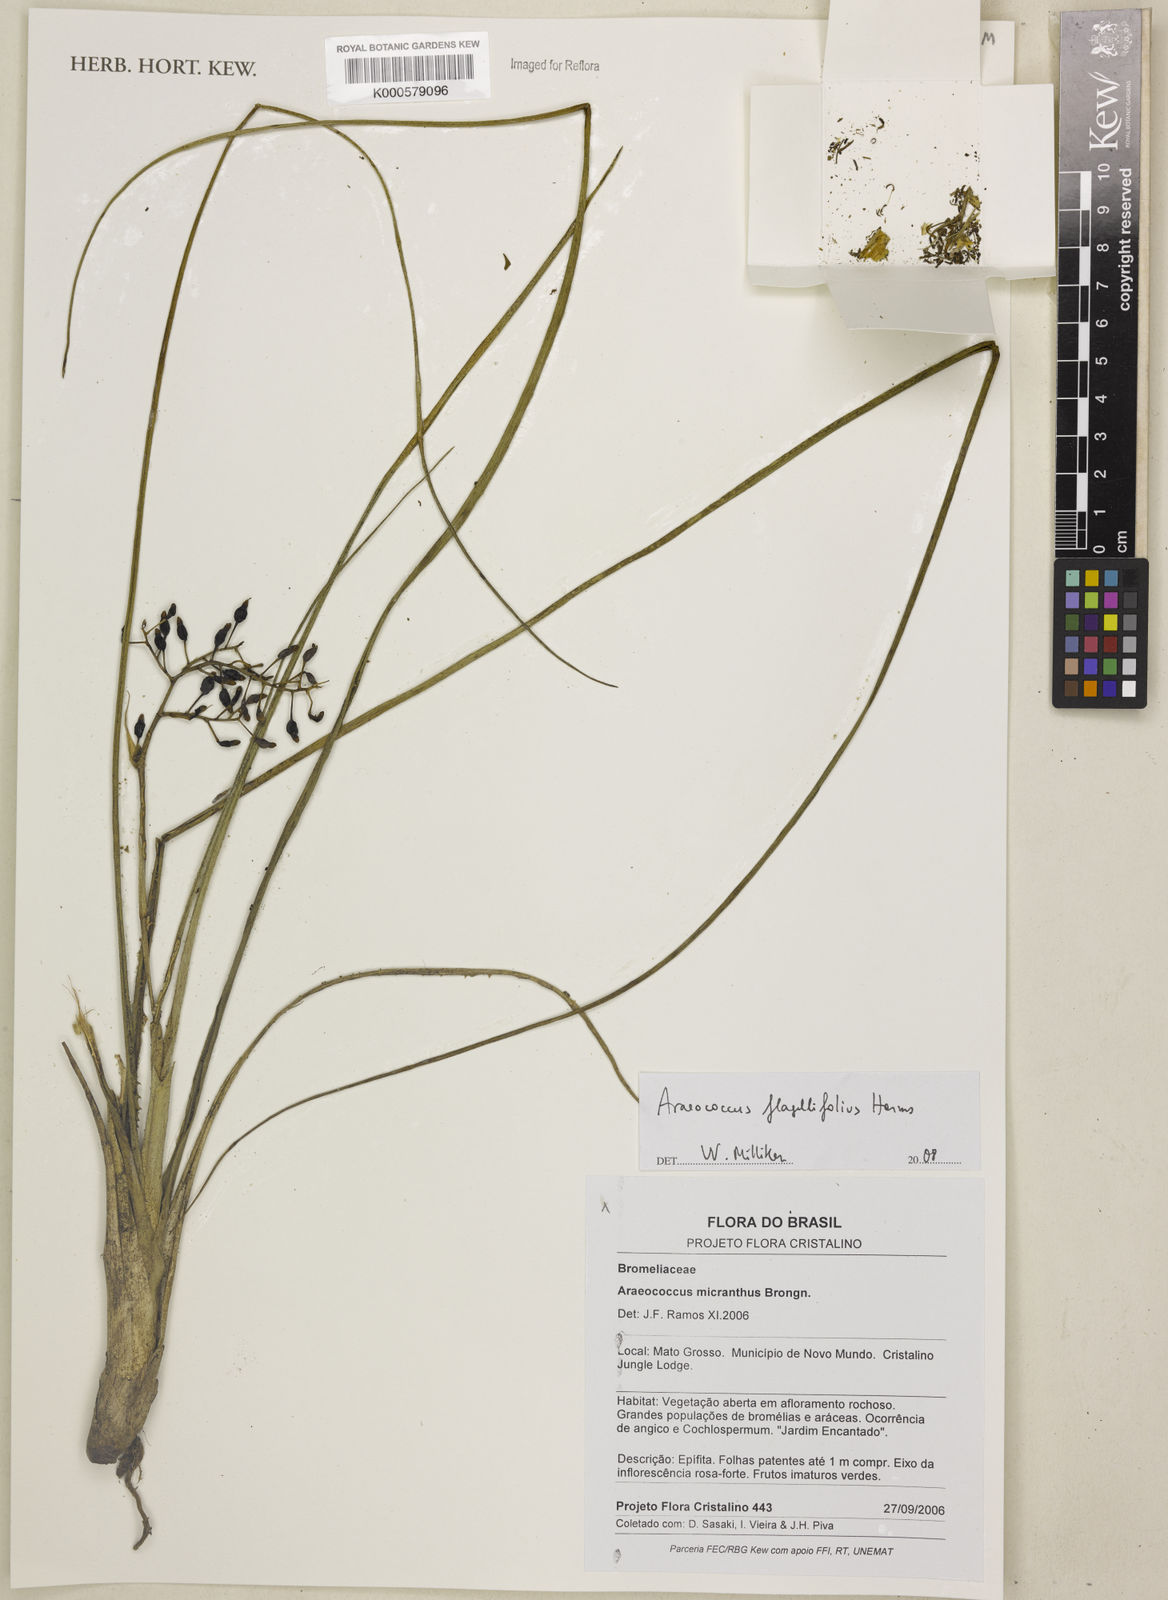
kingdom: Plantae
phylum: Tracheophyta
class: Liliopsida
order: Poales
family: Bromeliaceae
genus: Araeococcus
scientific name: Araeococcus flagellifolius
